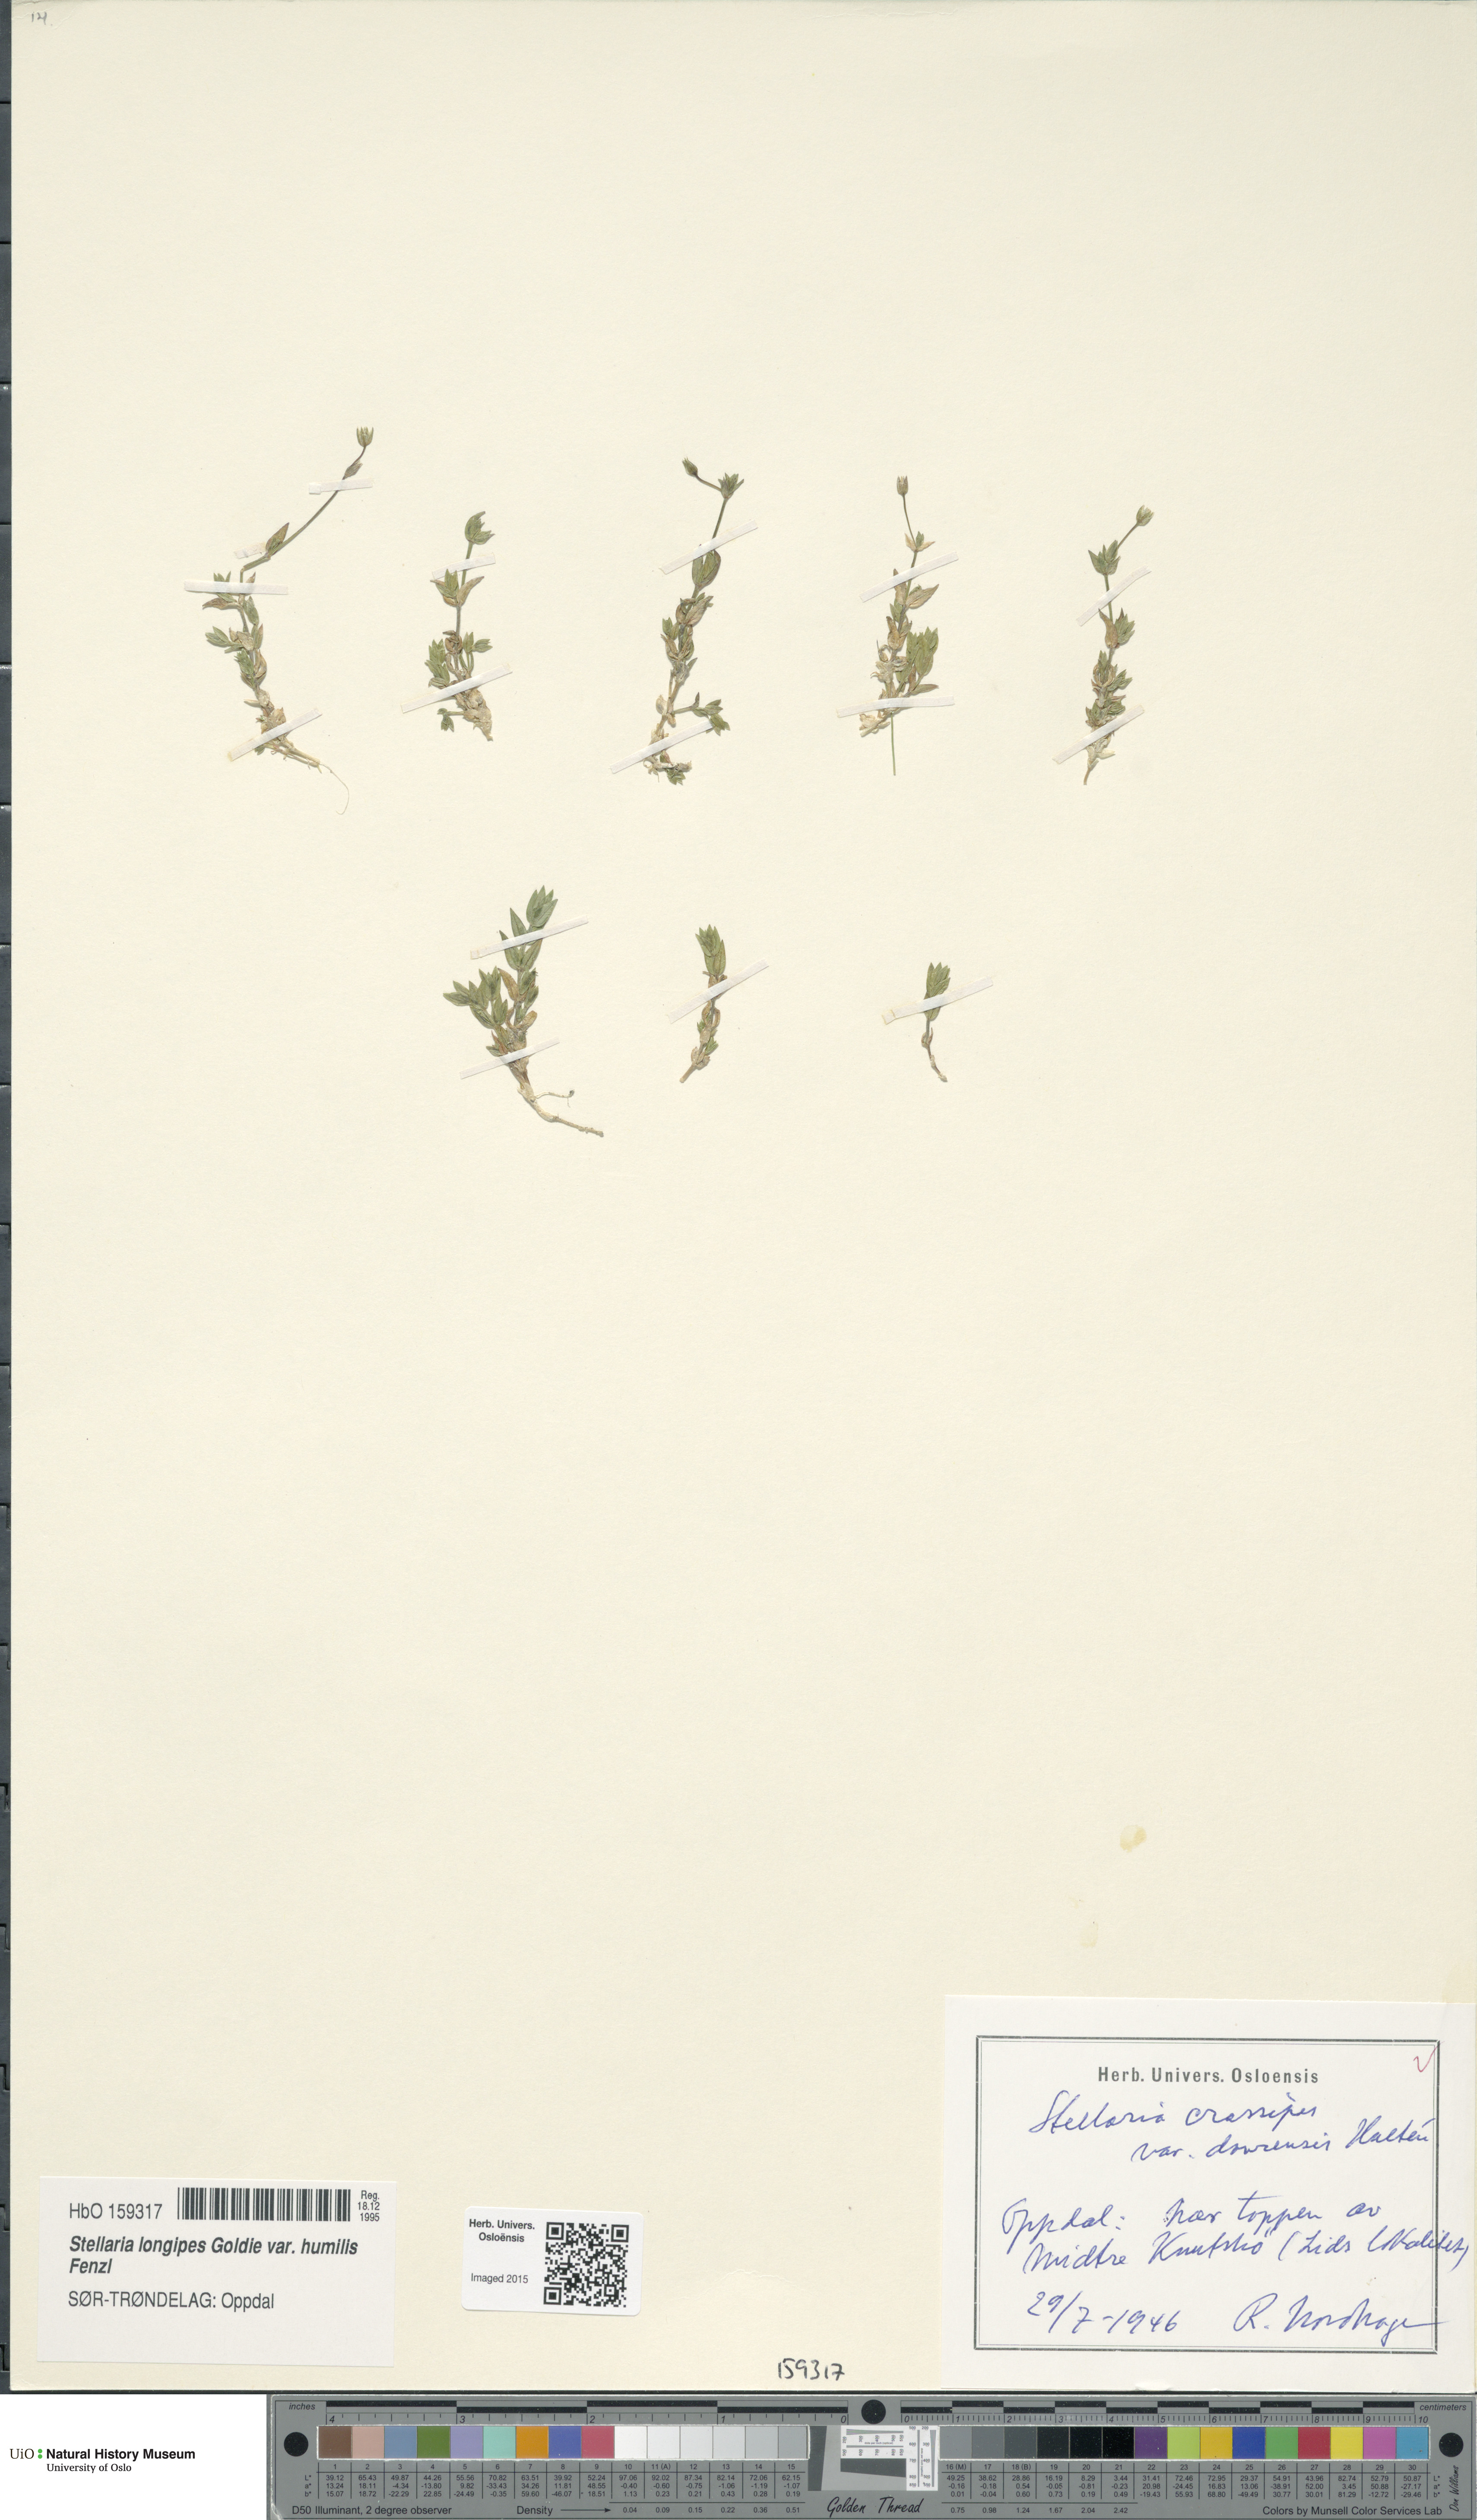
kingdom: Plantae
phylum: Tracheophyta
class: Magnoliopsida
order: Caryophyllales
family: Caryophyllaceae
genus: Stellaria
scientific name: Stellaria ruscifolia
